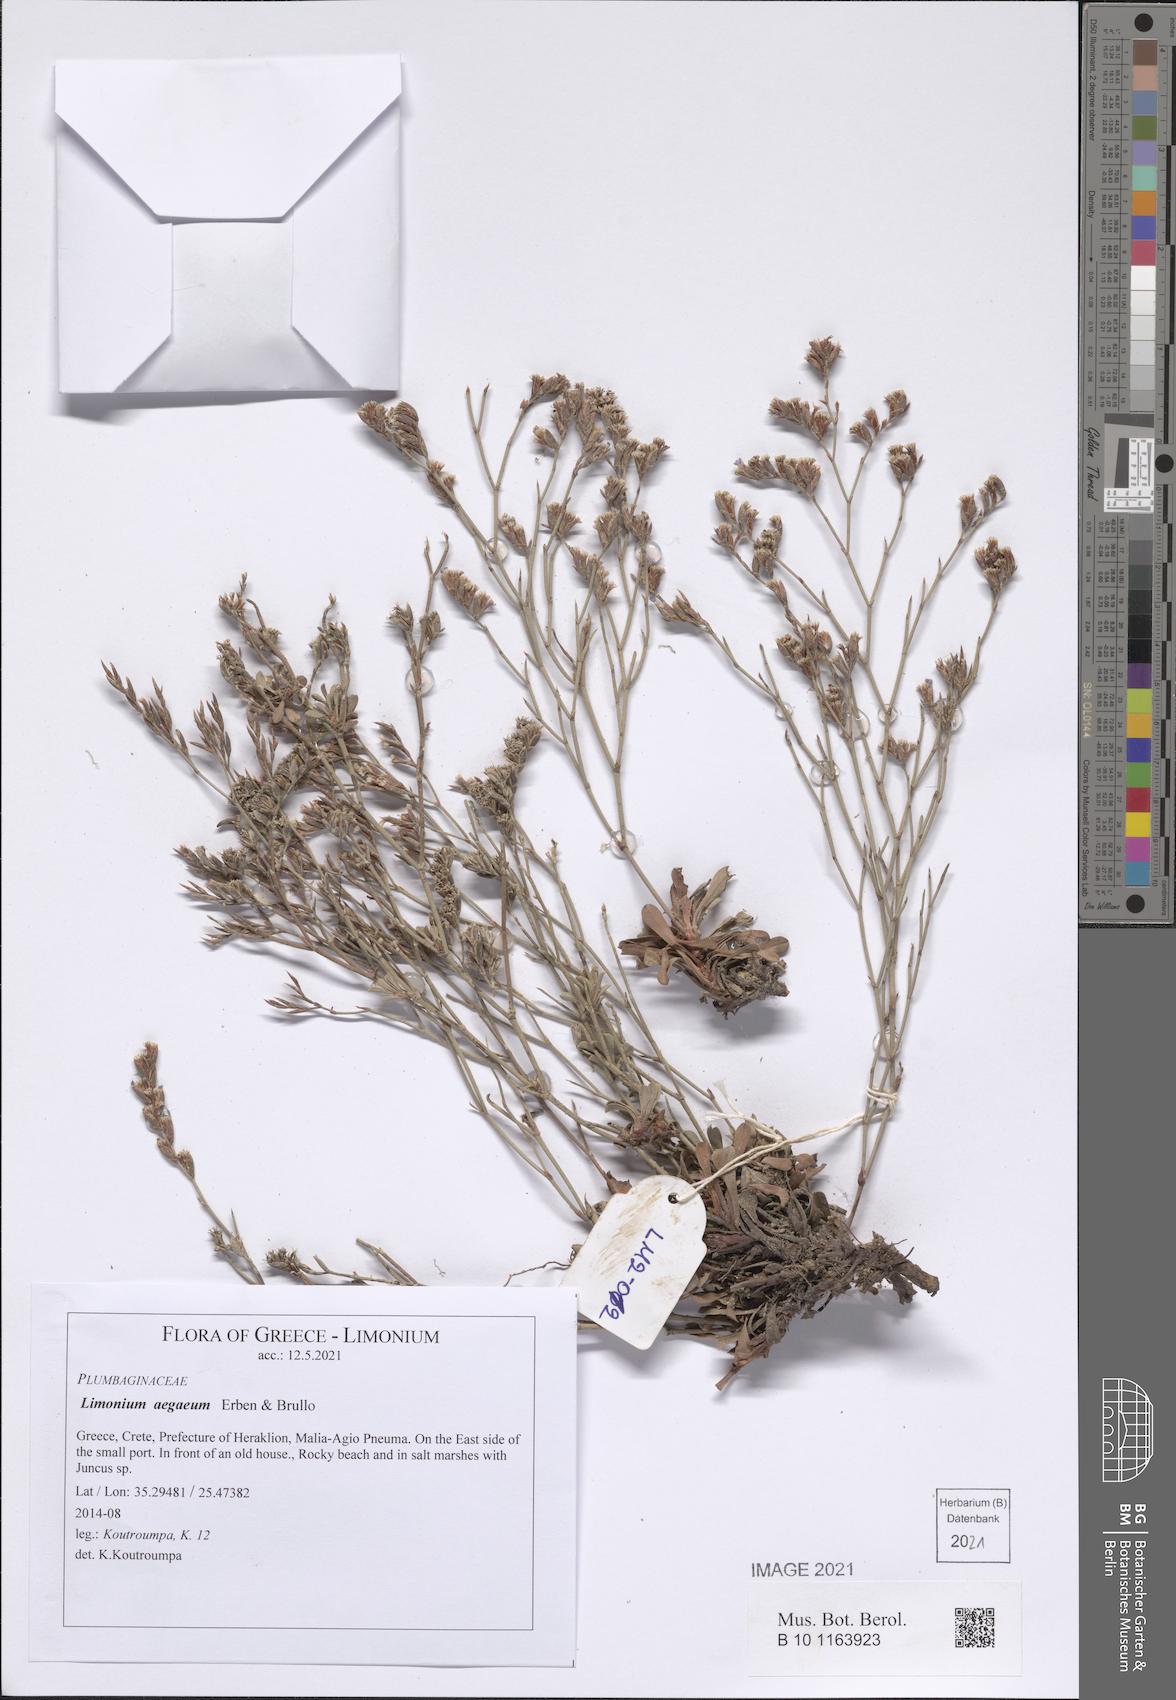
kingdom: Plantae
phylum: Tracheophyta
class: Magnoliopsida
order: Caryophyllales
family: Plumbaginaceae
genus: Limonium
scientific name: Limonium aegaeum
